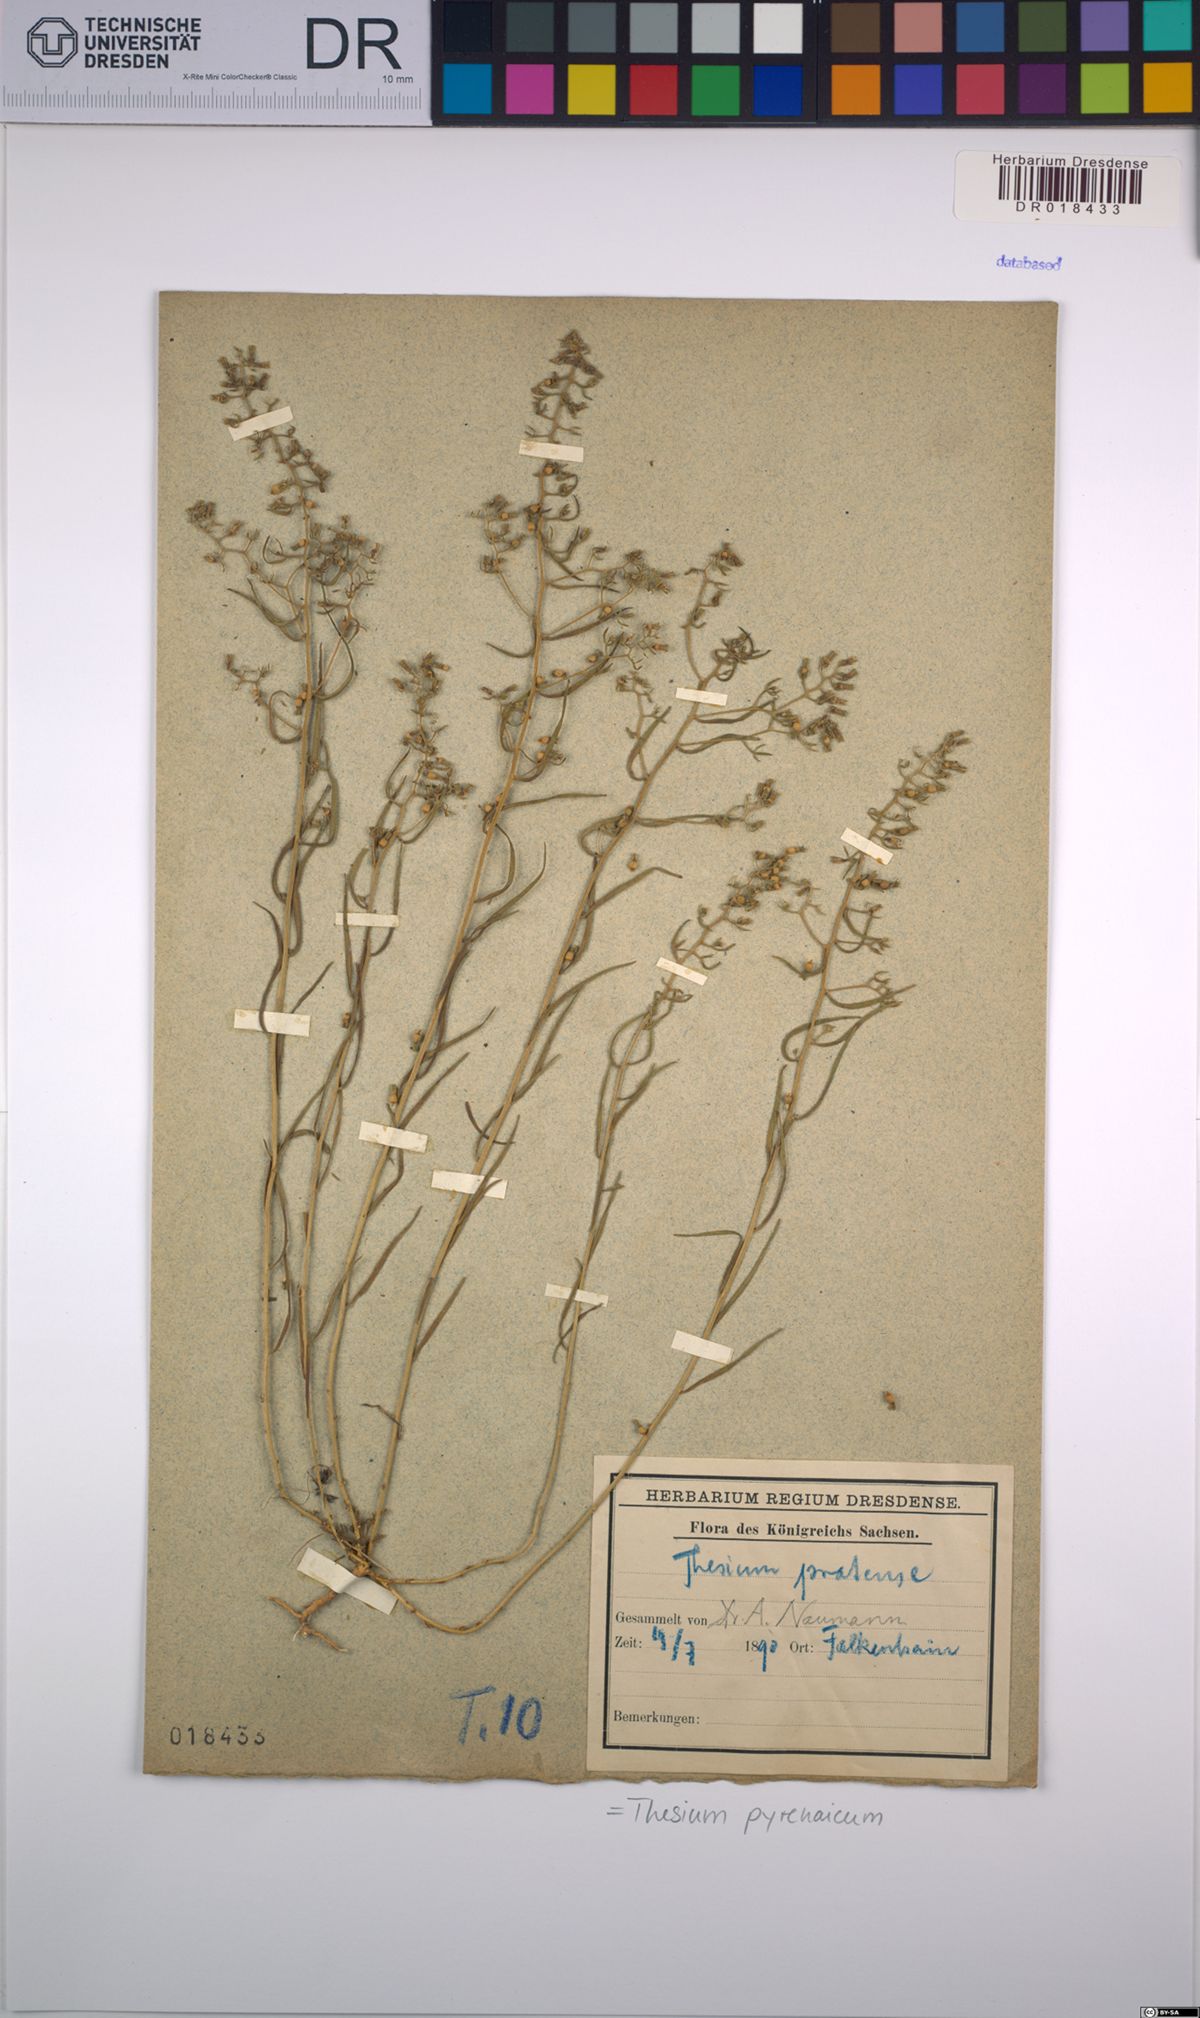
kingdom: Plantae
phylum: Tracheophyta
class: Magnoliopsida
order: Santalales
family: Thesiaceae
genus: Thesium
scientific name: Thesium pyrenaicum
